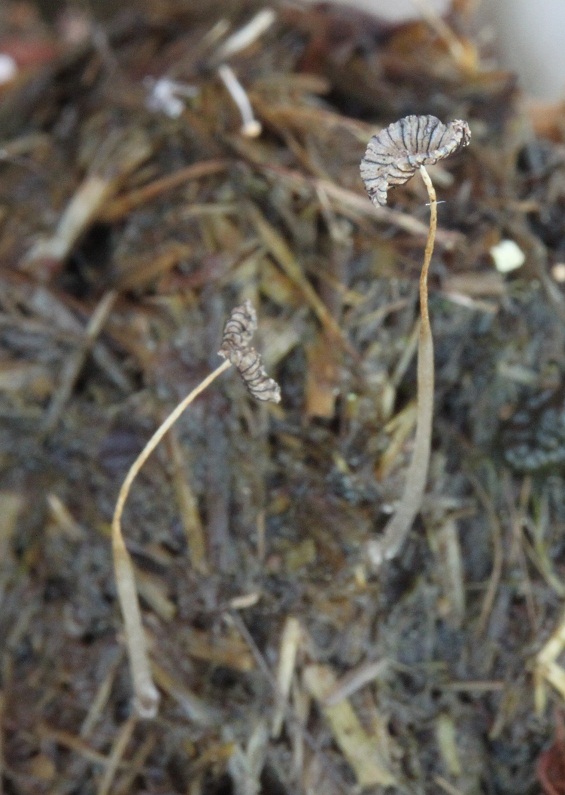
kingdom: Fungi
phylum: Basidiomycota
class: Agaricomycetes
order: Agaricales
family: Psathyrellaceae
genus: Coprinopsis
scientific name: Coprinopsis poliomalla
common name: gråfnugget blækhat
